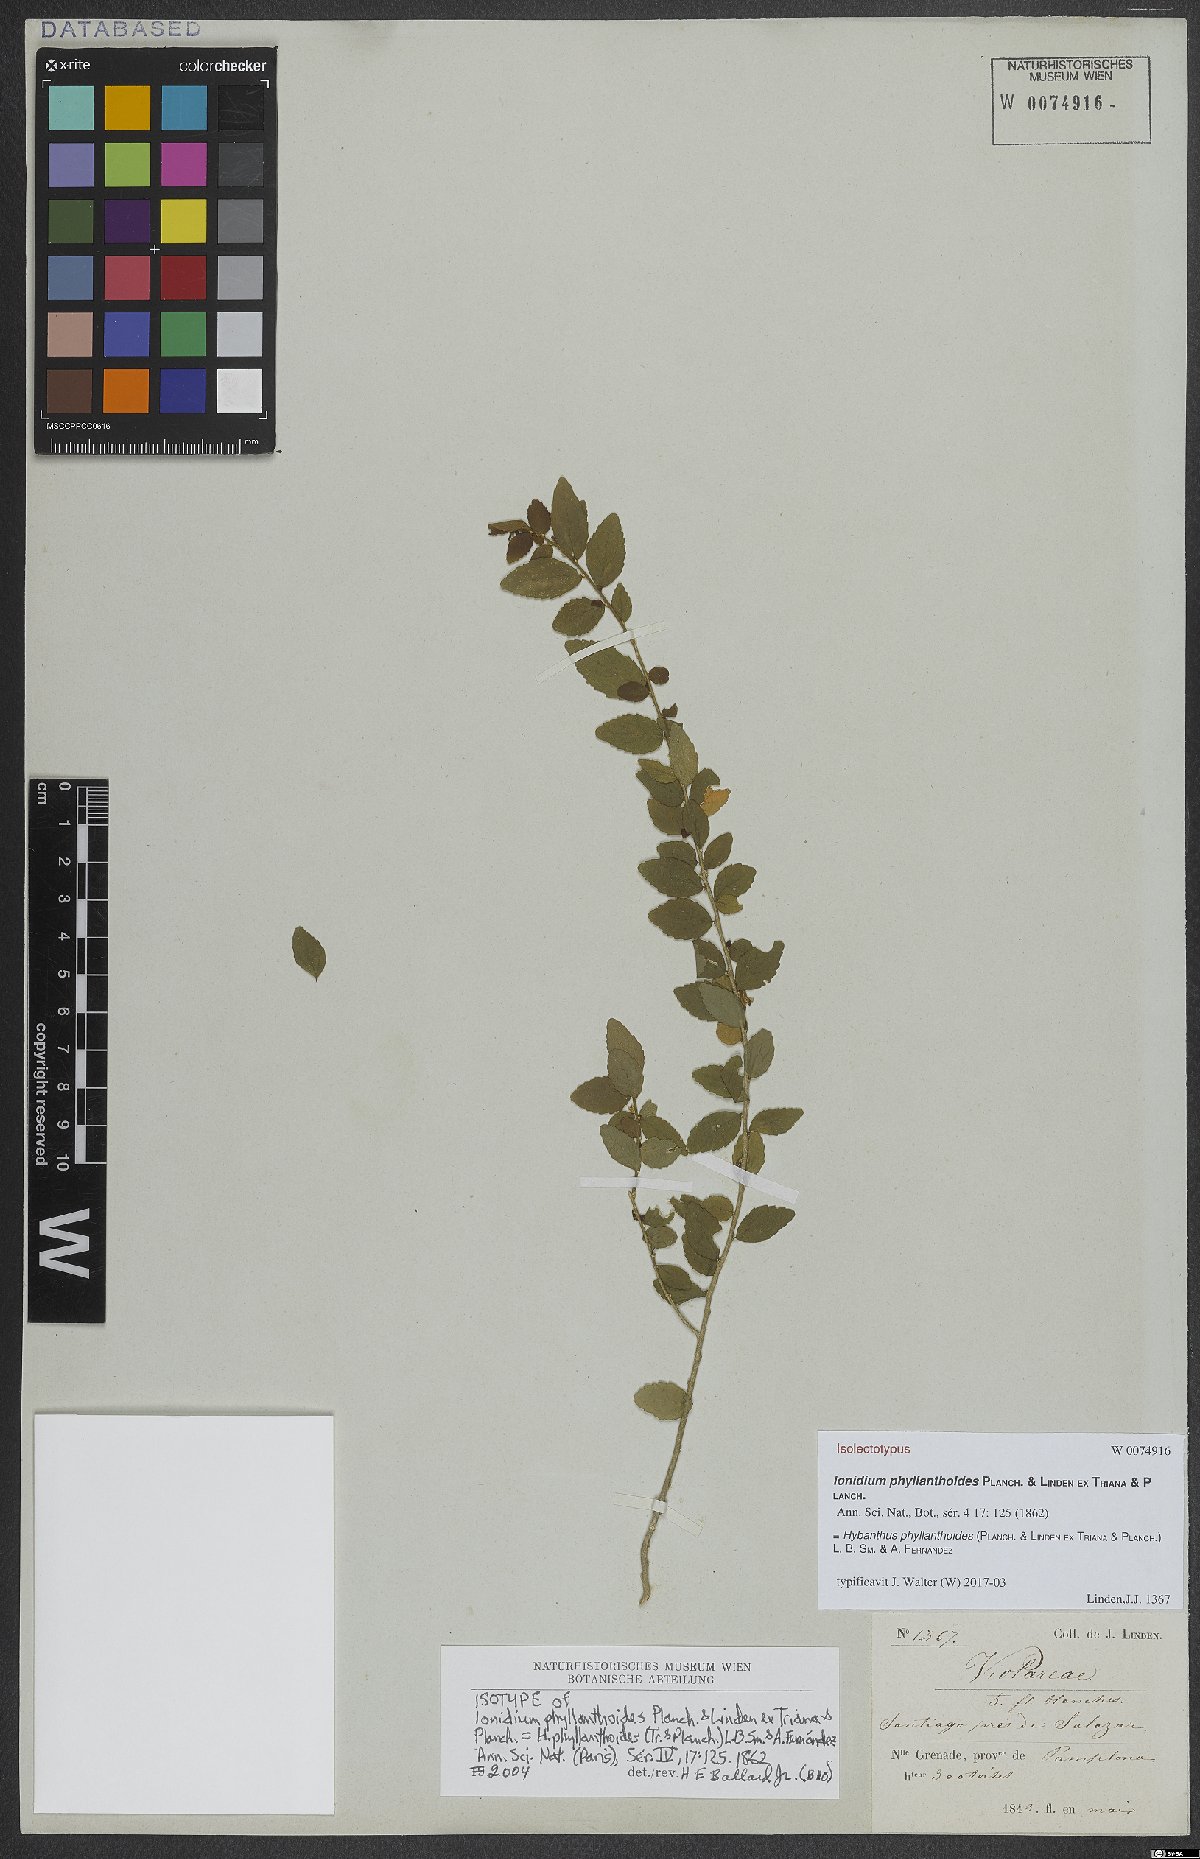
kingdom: Plantae
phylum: Tracheophyta
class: Magnoliopsida
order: Malpighiales
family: Violaceae
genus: Pombalia
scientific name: Pombalia phyllanthoides
